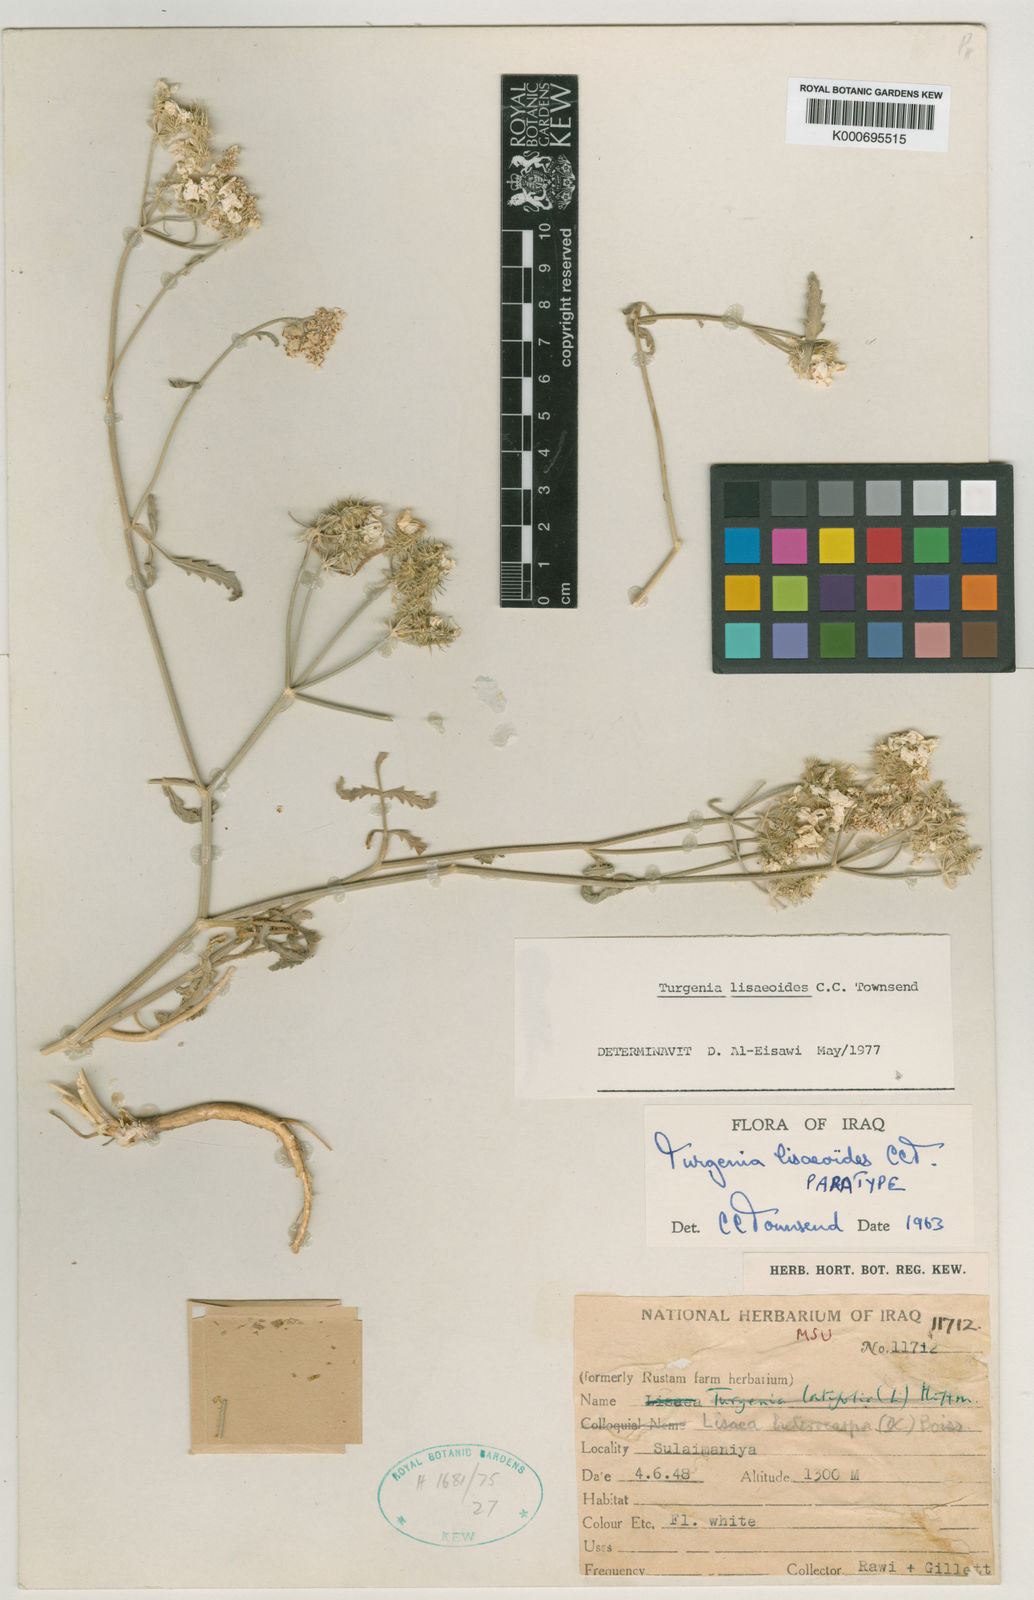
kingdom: Plantae
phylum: Tracheophyta
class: Magnoliopsida
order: Apiales
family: Apiaceae
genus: Turgenia
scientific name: Turgenia lisaeoides
